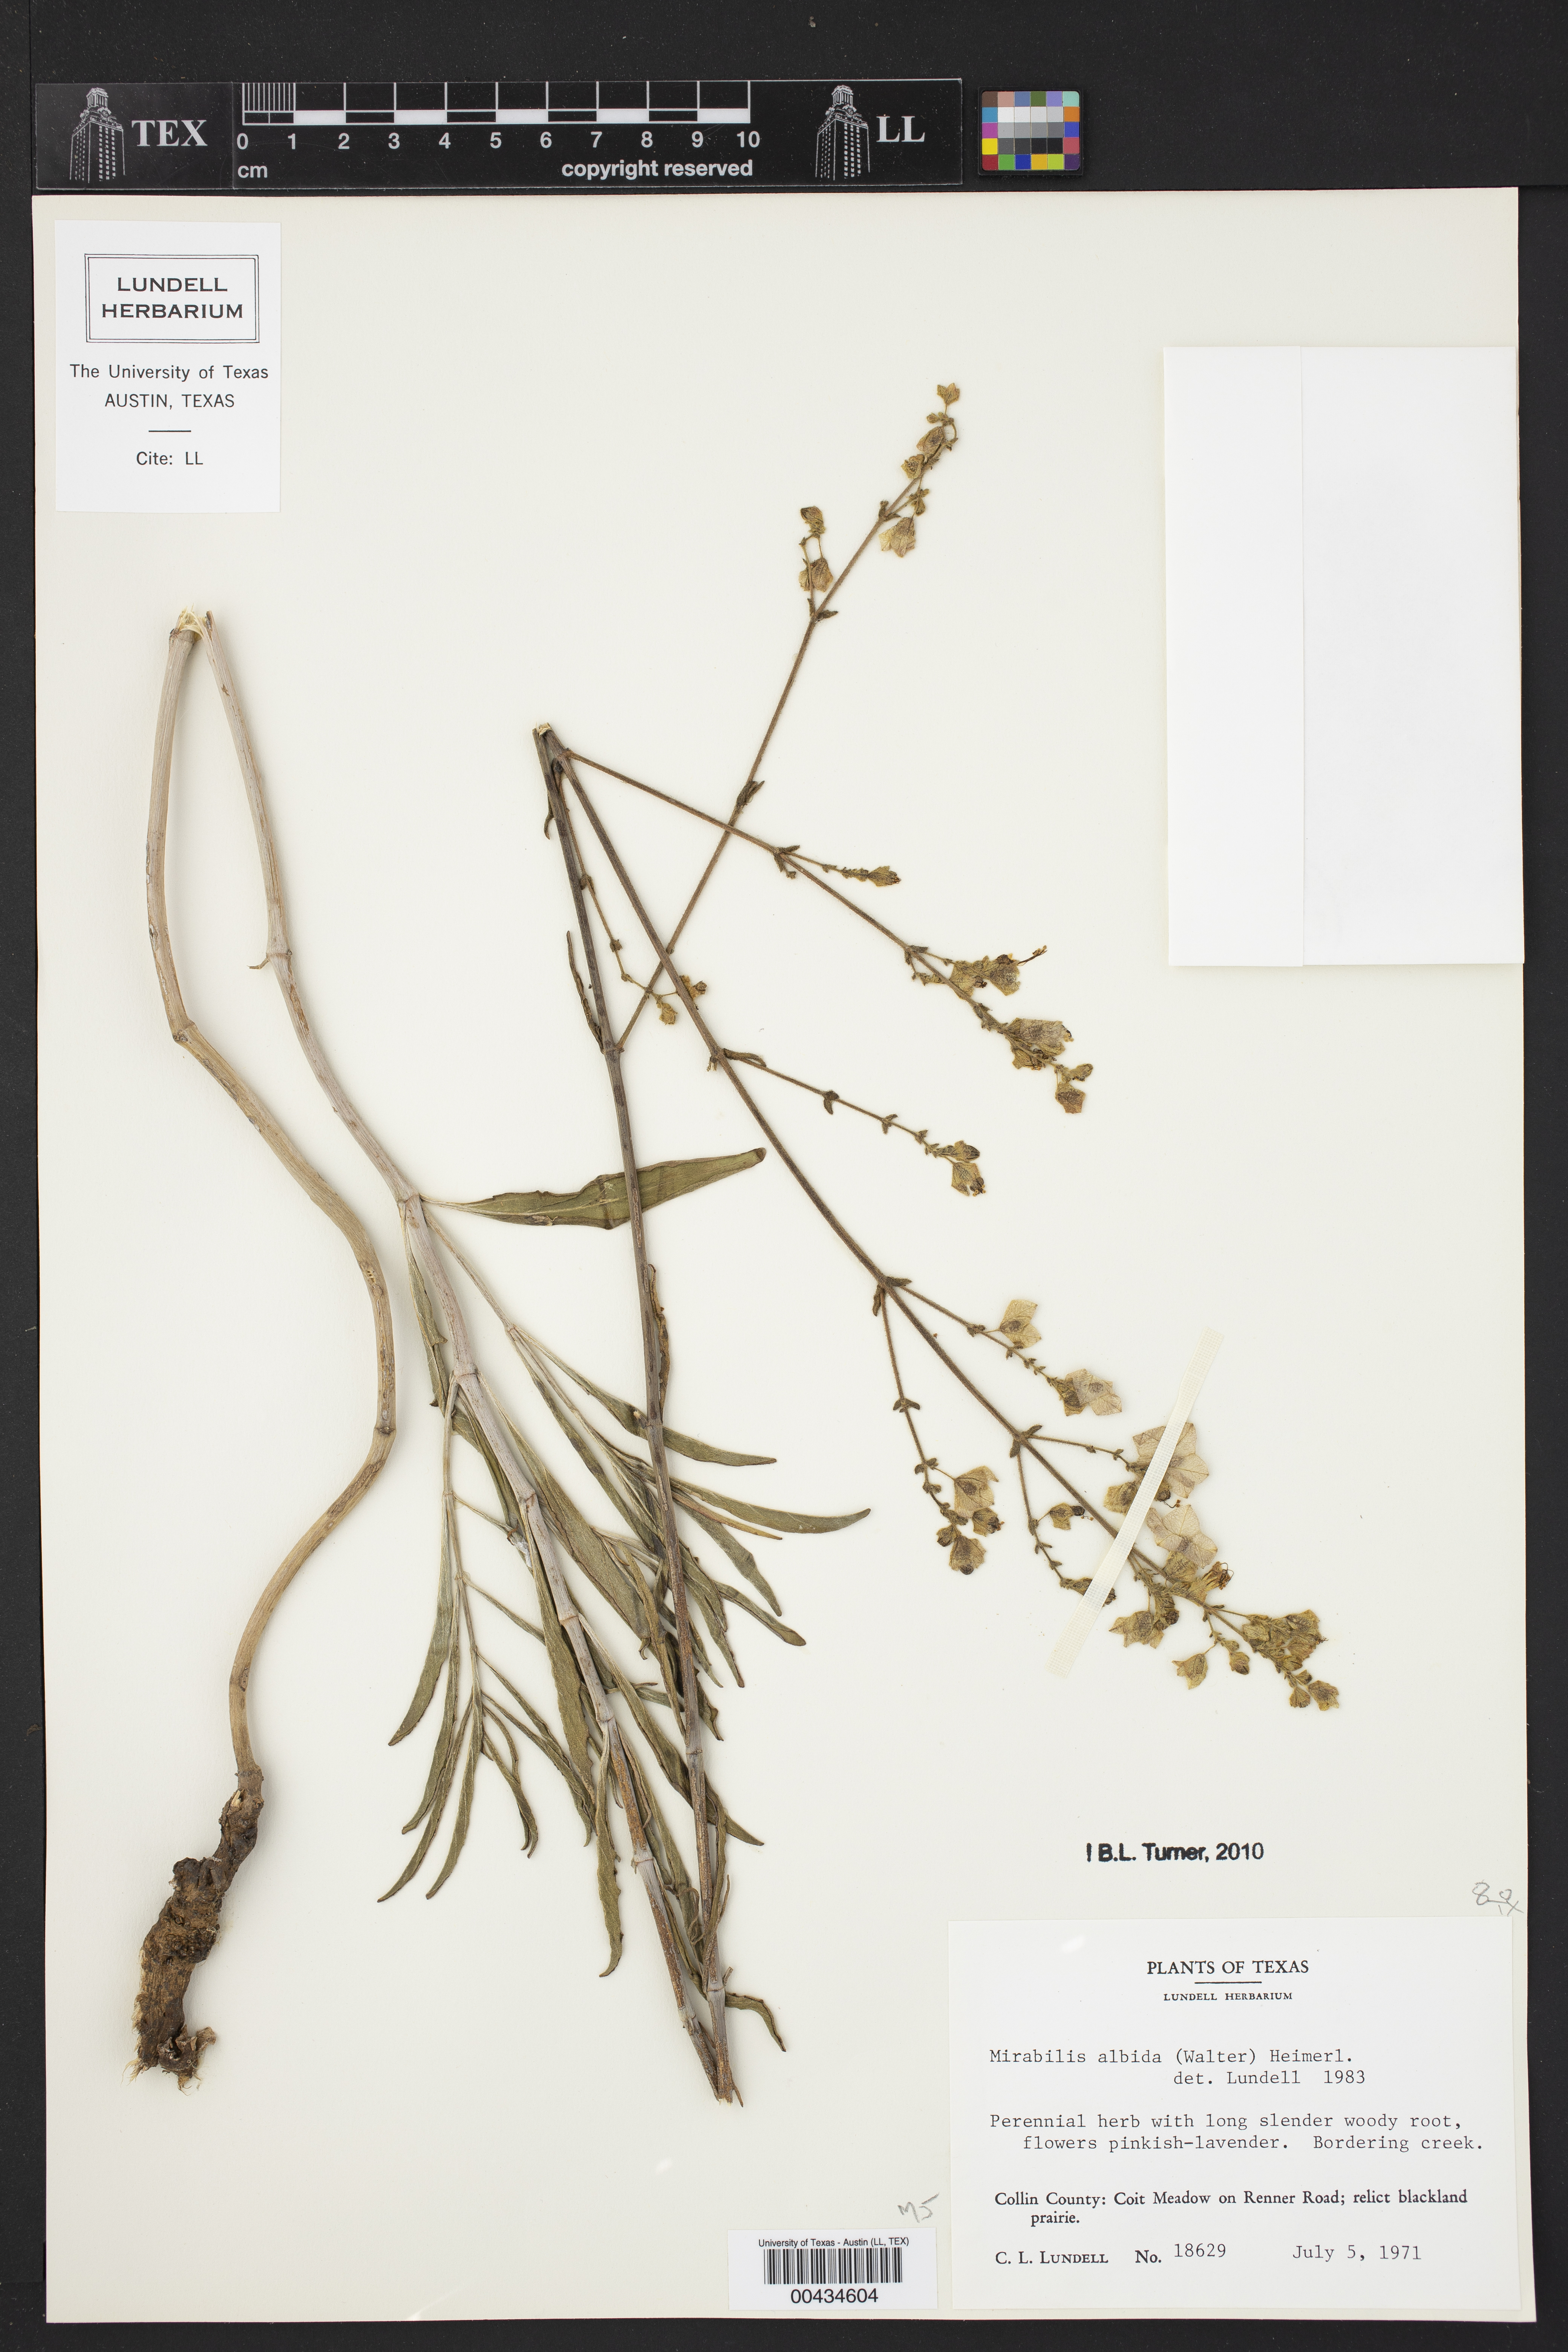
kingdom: Plantae
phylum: Tracheophyta
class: Magnoliopsida
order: Caryophyllales
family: Nyctaginaceae
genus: Mirabilis
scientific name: Mirabilis albida
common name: Hairy four-o'clock
